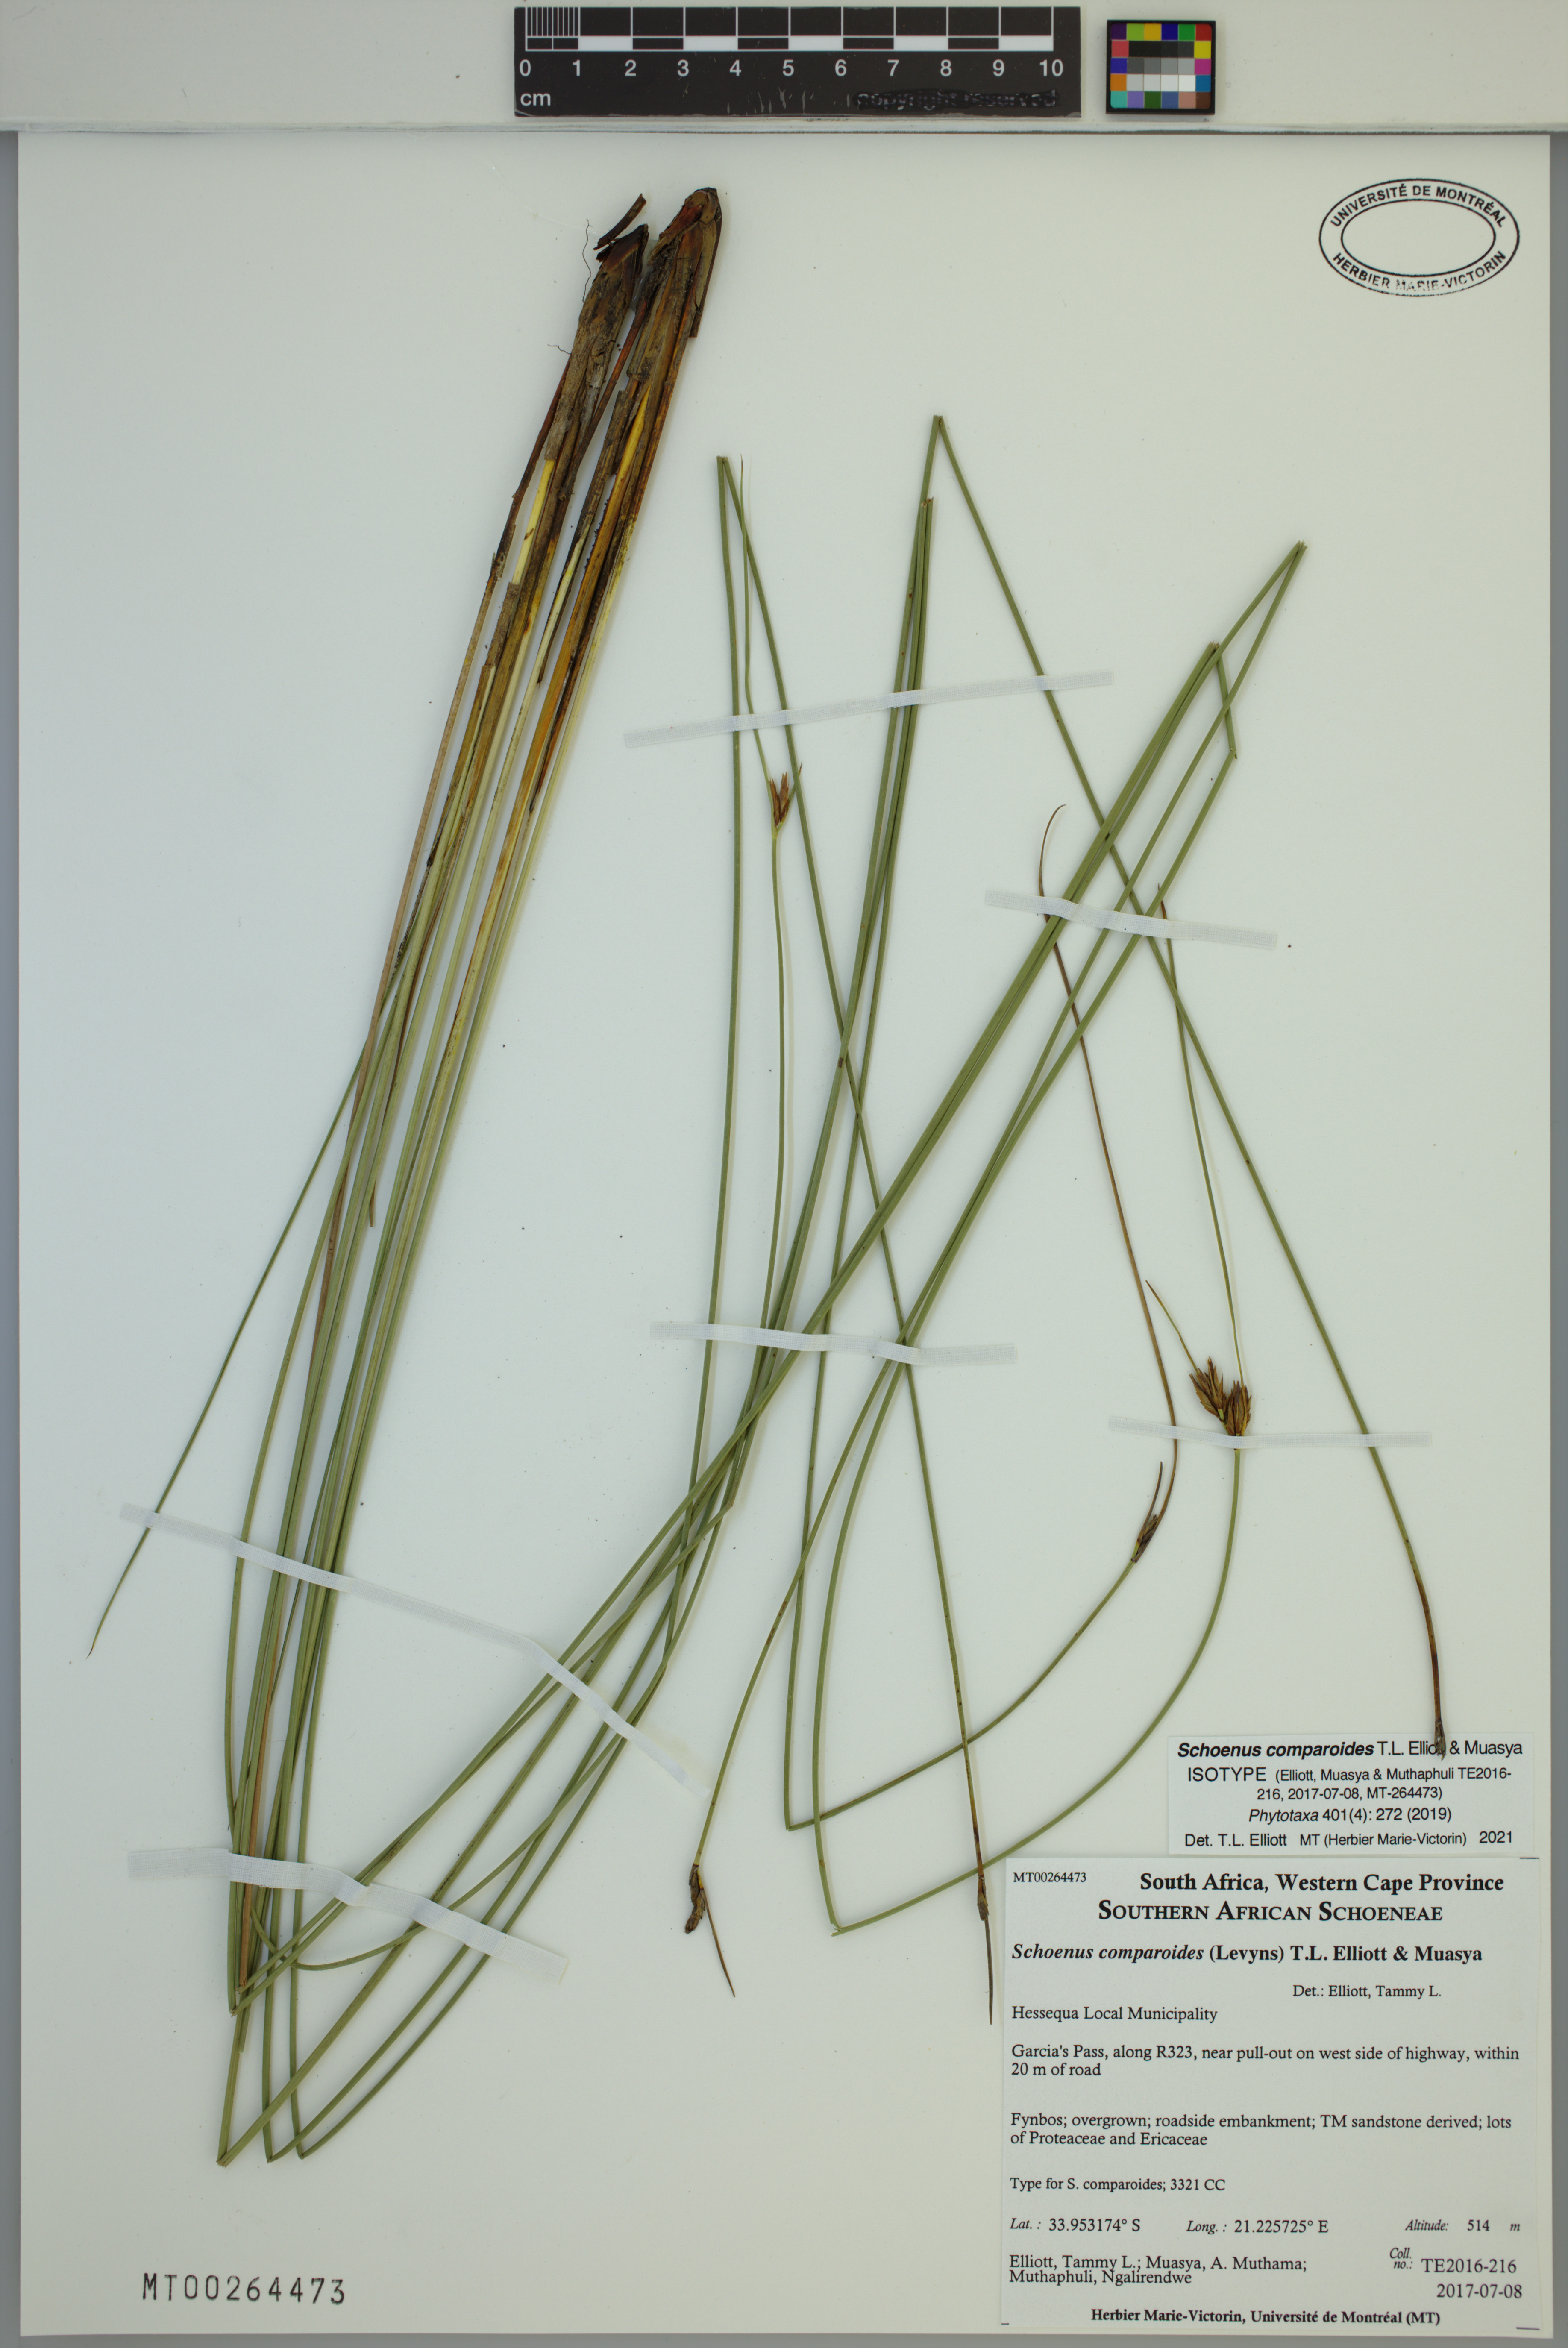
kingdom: Plantae
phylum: Tracheophyta
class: Liliopsida
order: Poales
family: Cyperaceae
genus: Schoenus
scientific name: Schoenus comparoides
